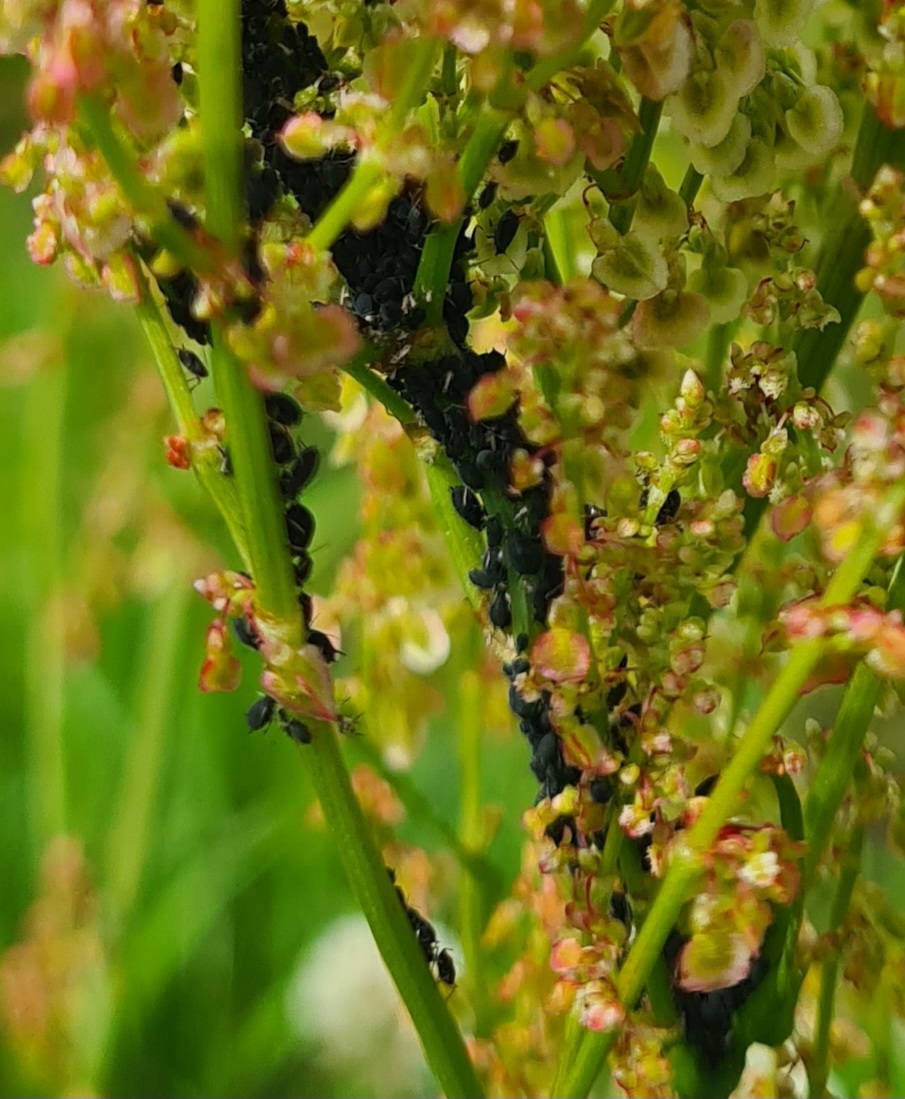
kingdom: Animalia
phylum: Arthropoda
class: Insecta
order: Hemiptera
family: Aphididae
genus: Aphis
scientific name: Aphis fabae
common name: Bedebladlus
